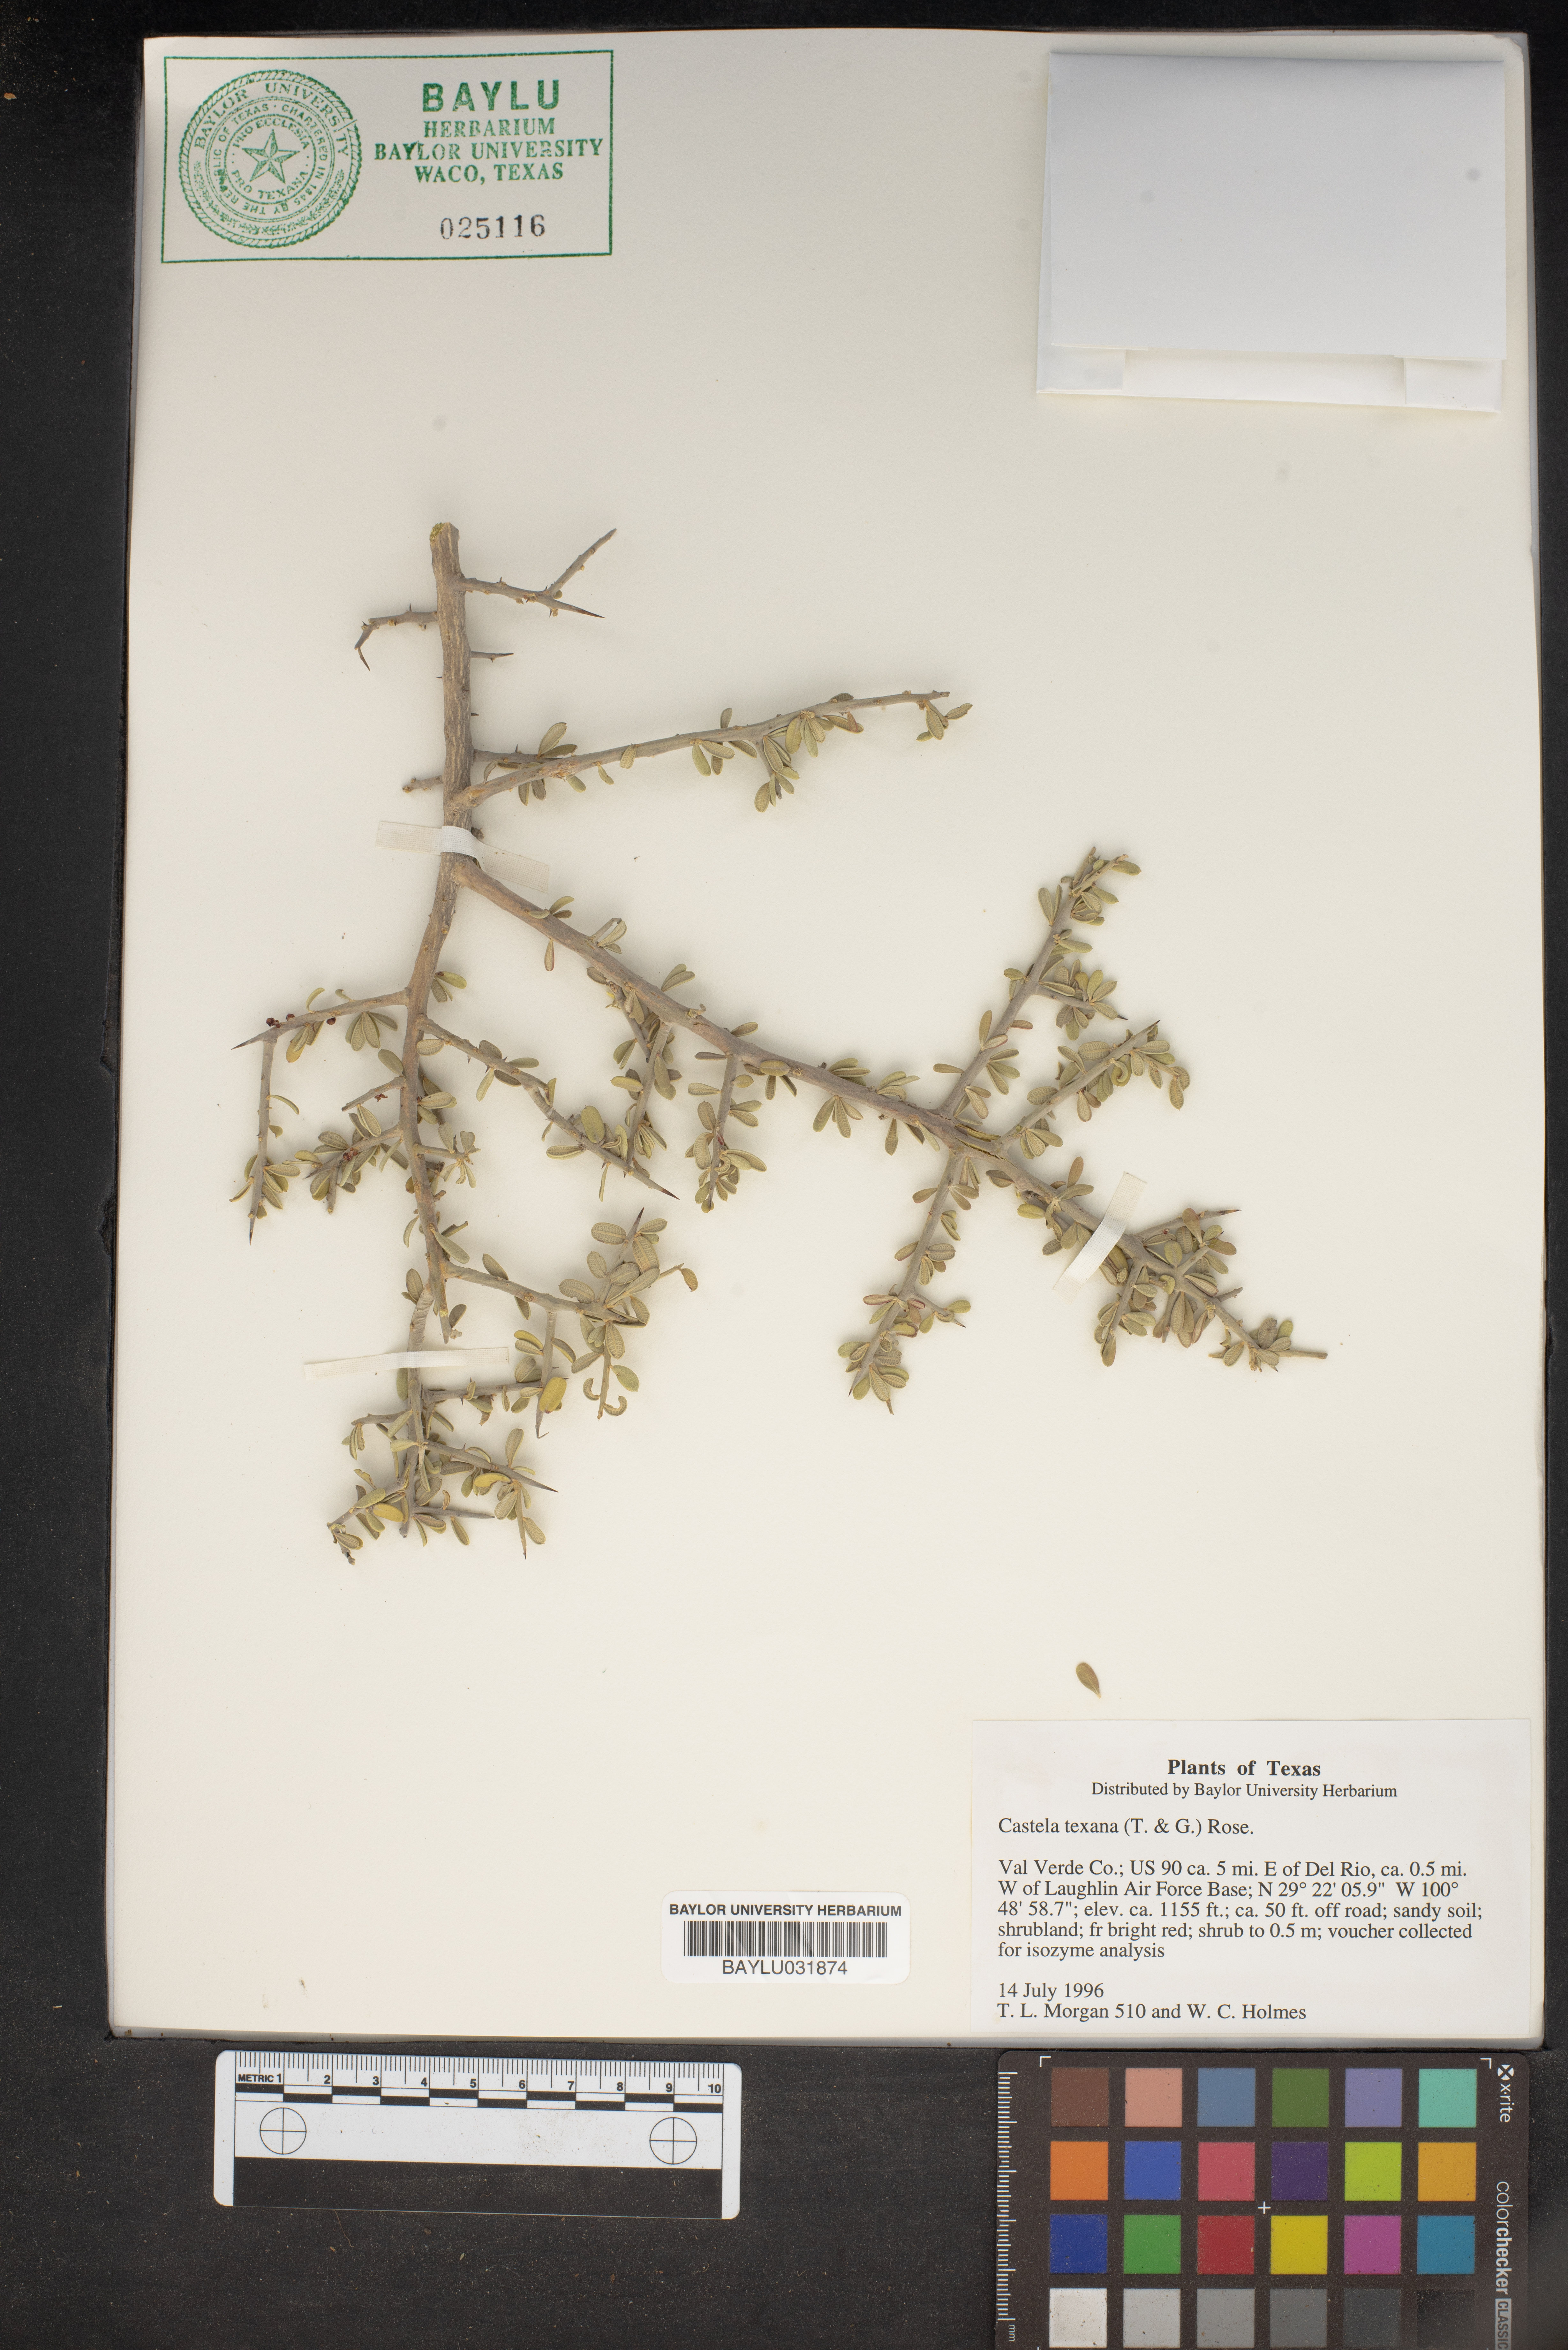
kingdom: Plantae
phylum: Tracheophyta
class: Magnoliopsida
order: Sapindales
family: Simaroubaceae
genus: Castela
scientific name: Castela tortuosa
